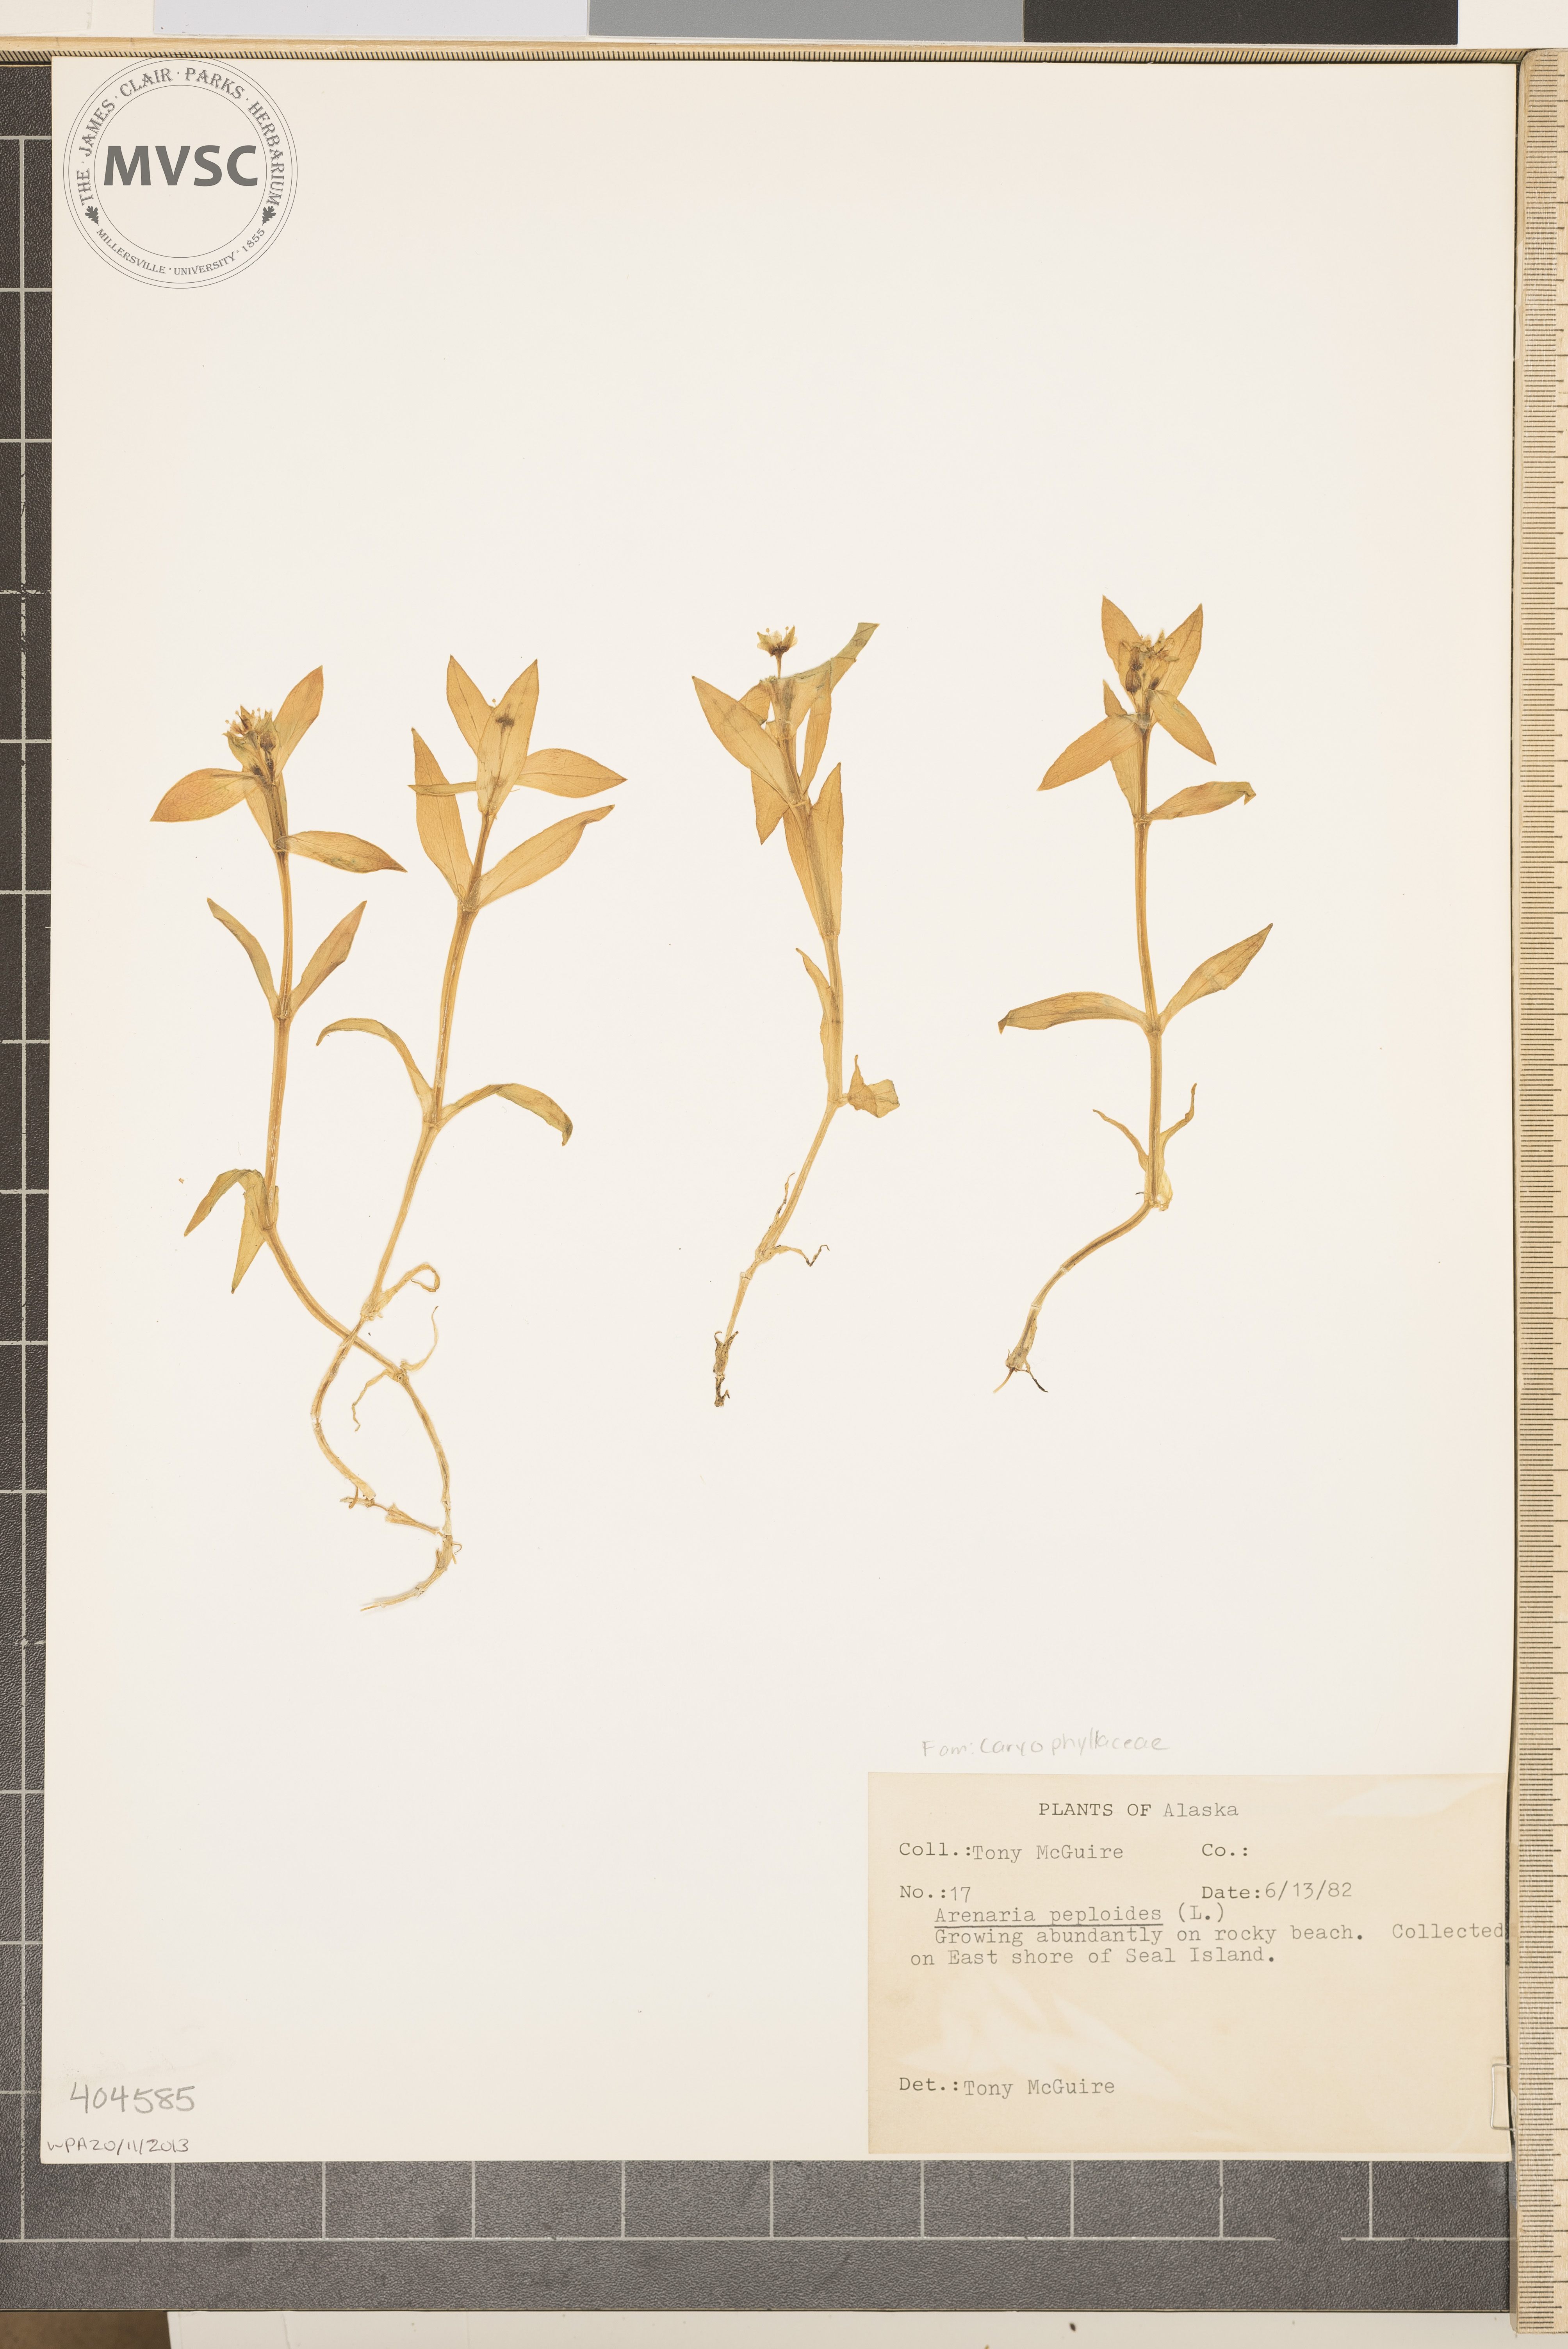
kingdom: Plantae
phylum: Tracheophyta
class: Magnoliopsida
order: Caryophyllales
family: Caryophyllaceae
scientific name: Caryophyllaceae
